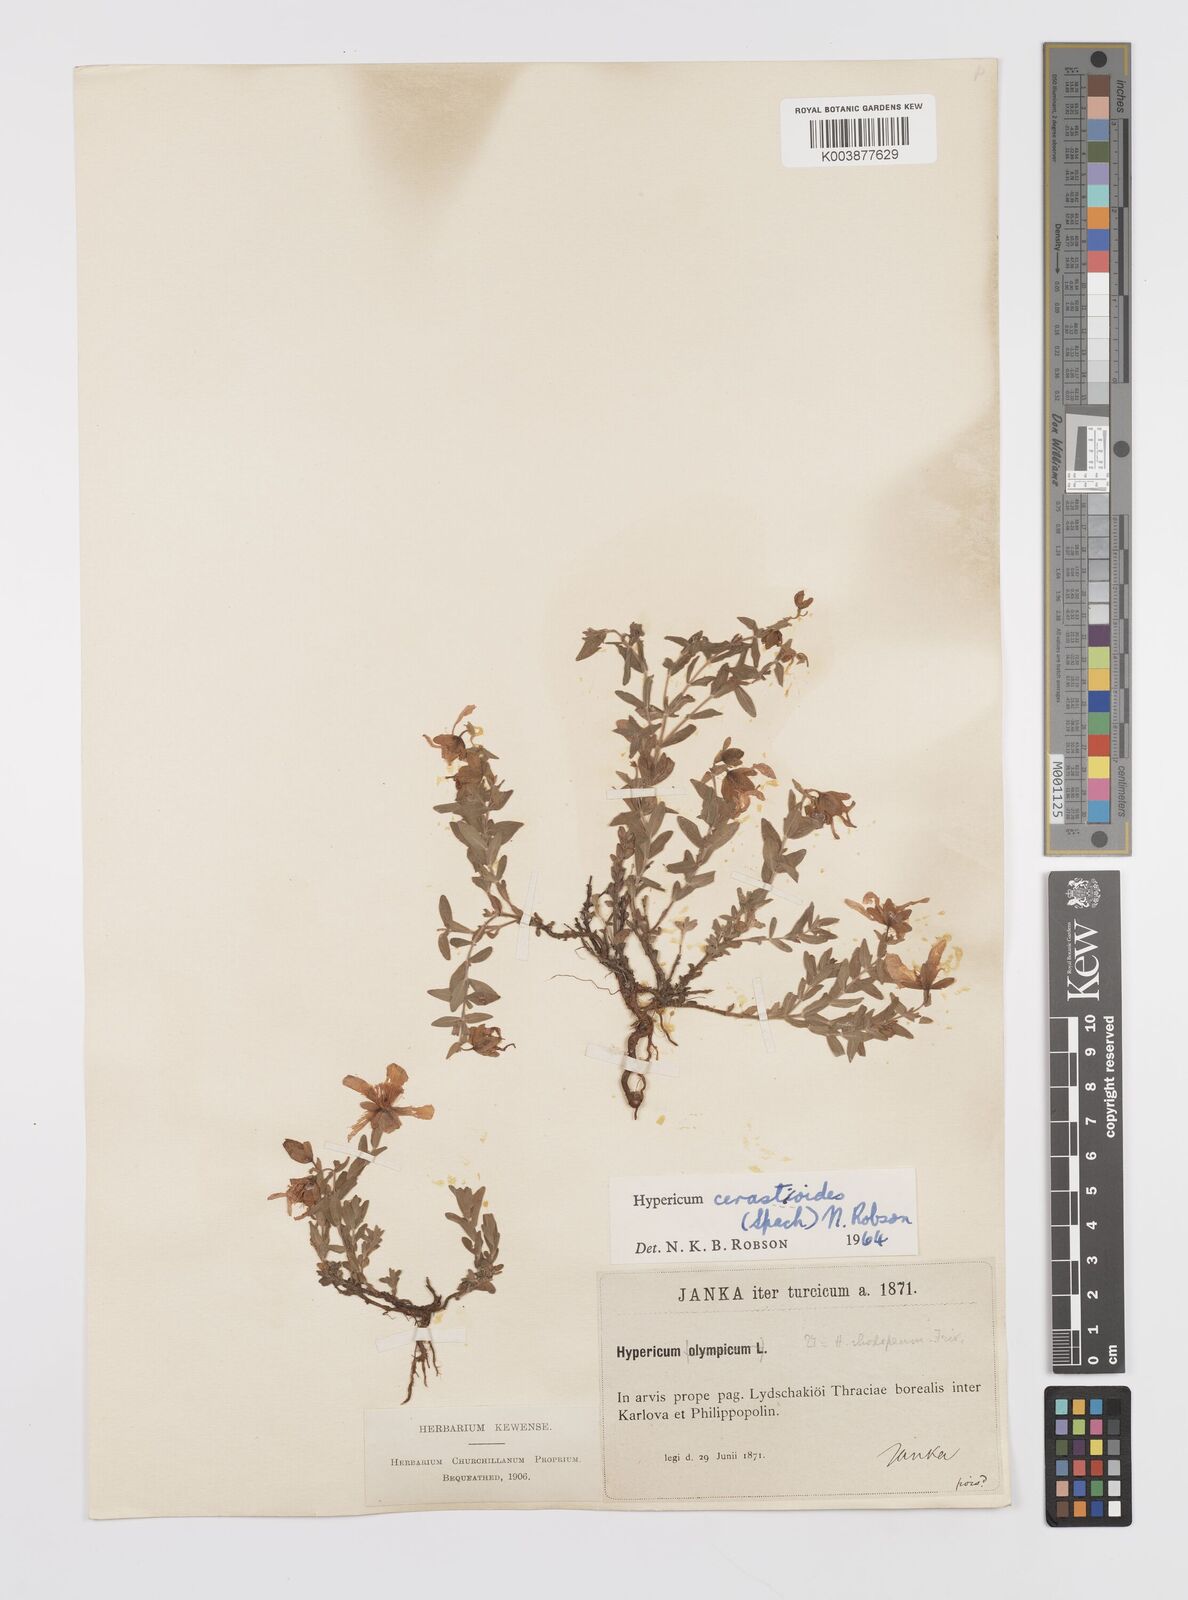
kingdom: Plantae
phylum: Tracheophyta
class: Magnoliopsida
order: Malpighiales
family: Hypericaceae
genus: Hypericum
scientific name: Hypericum cerastoides
